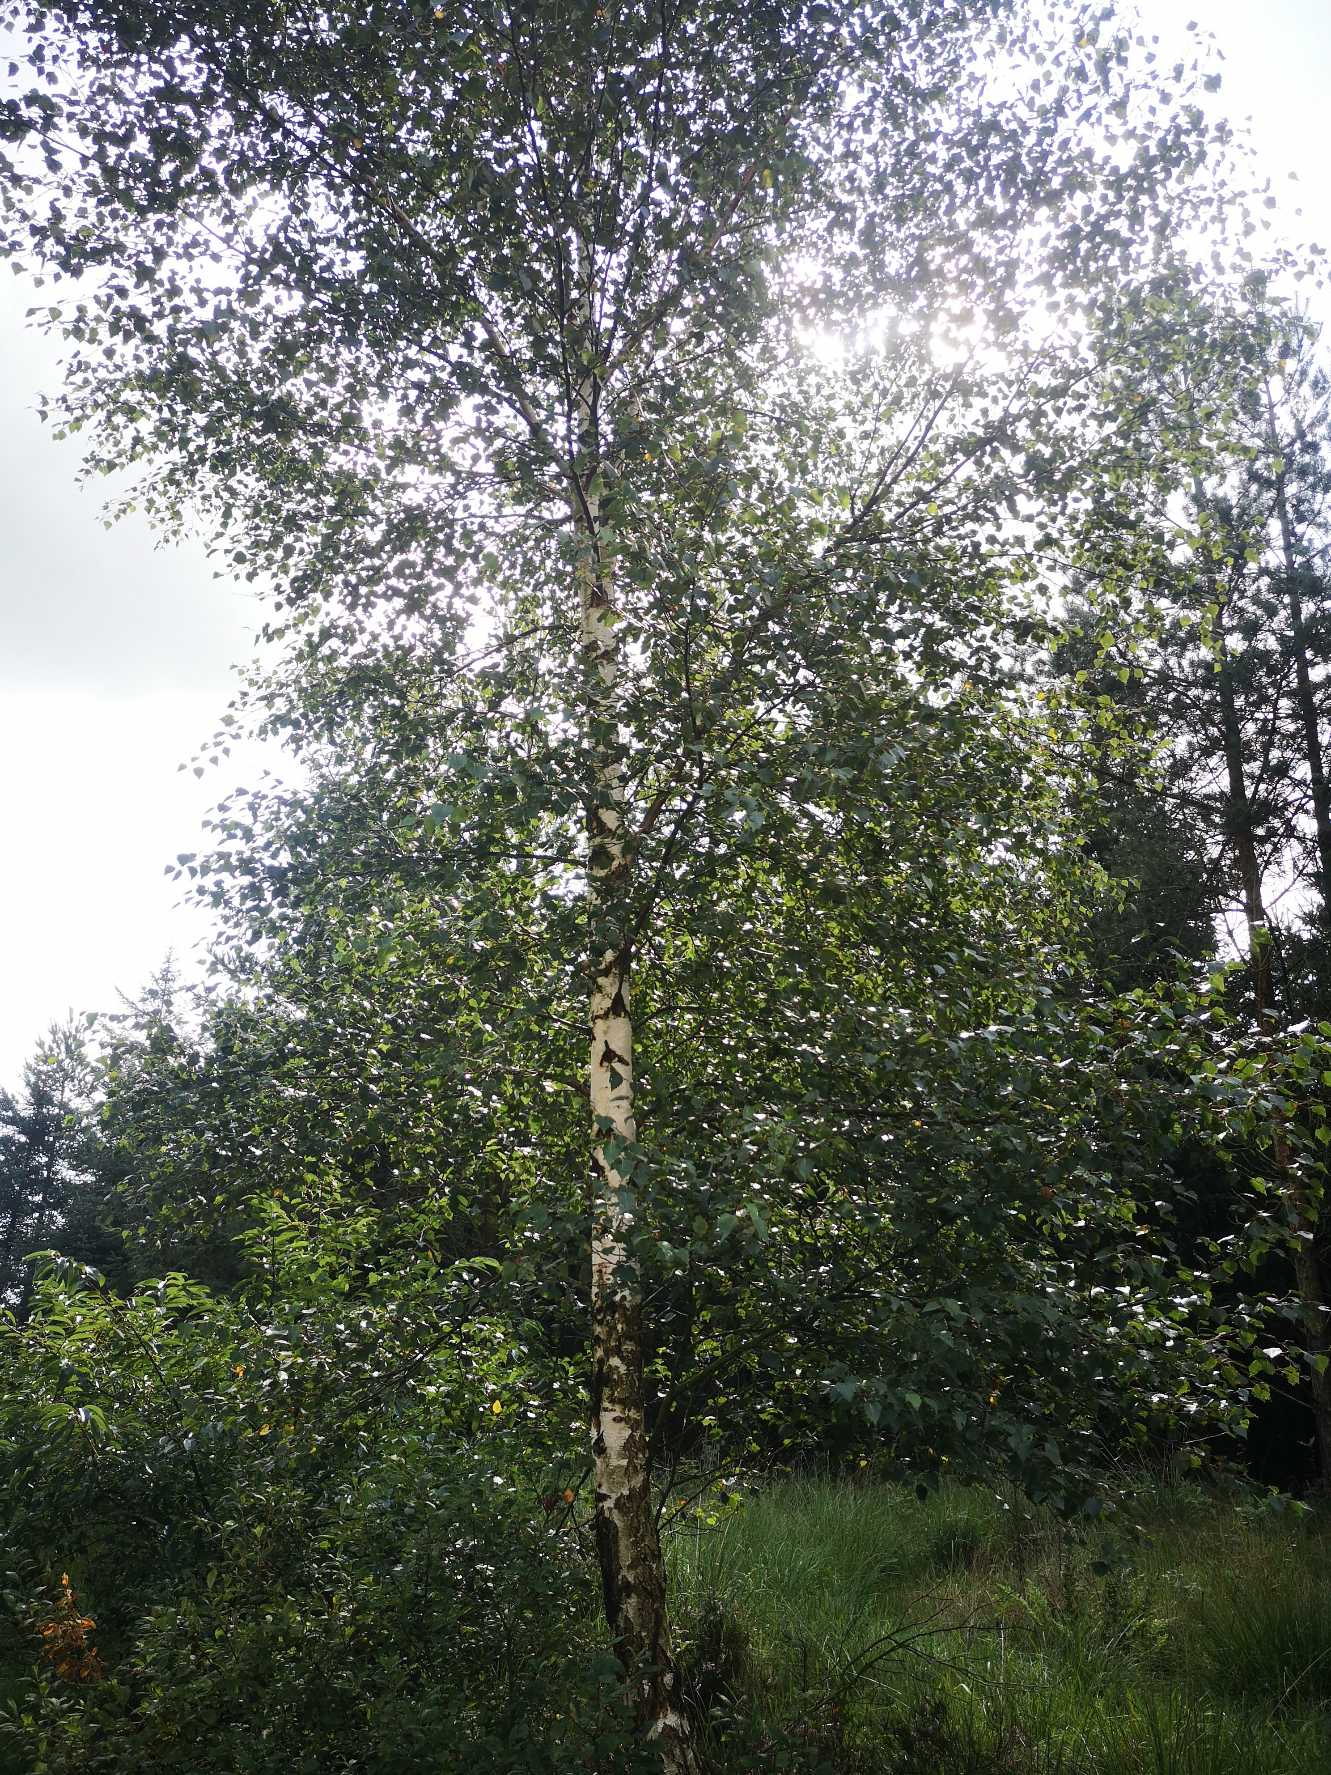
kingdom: Plantae
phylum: Tracheophyta
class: Magnoliopsida
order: Fagales
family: Betulaceae
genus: Betula
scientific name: Betula pendula
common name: Vorte-birk
